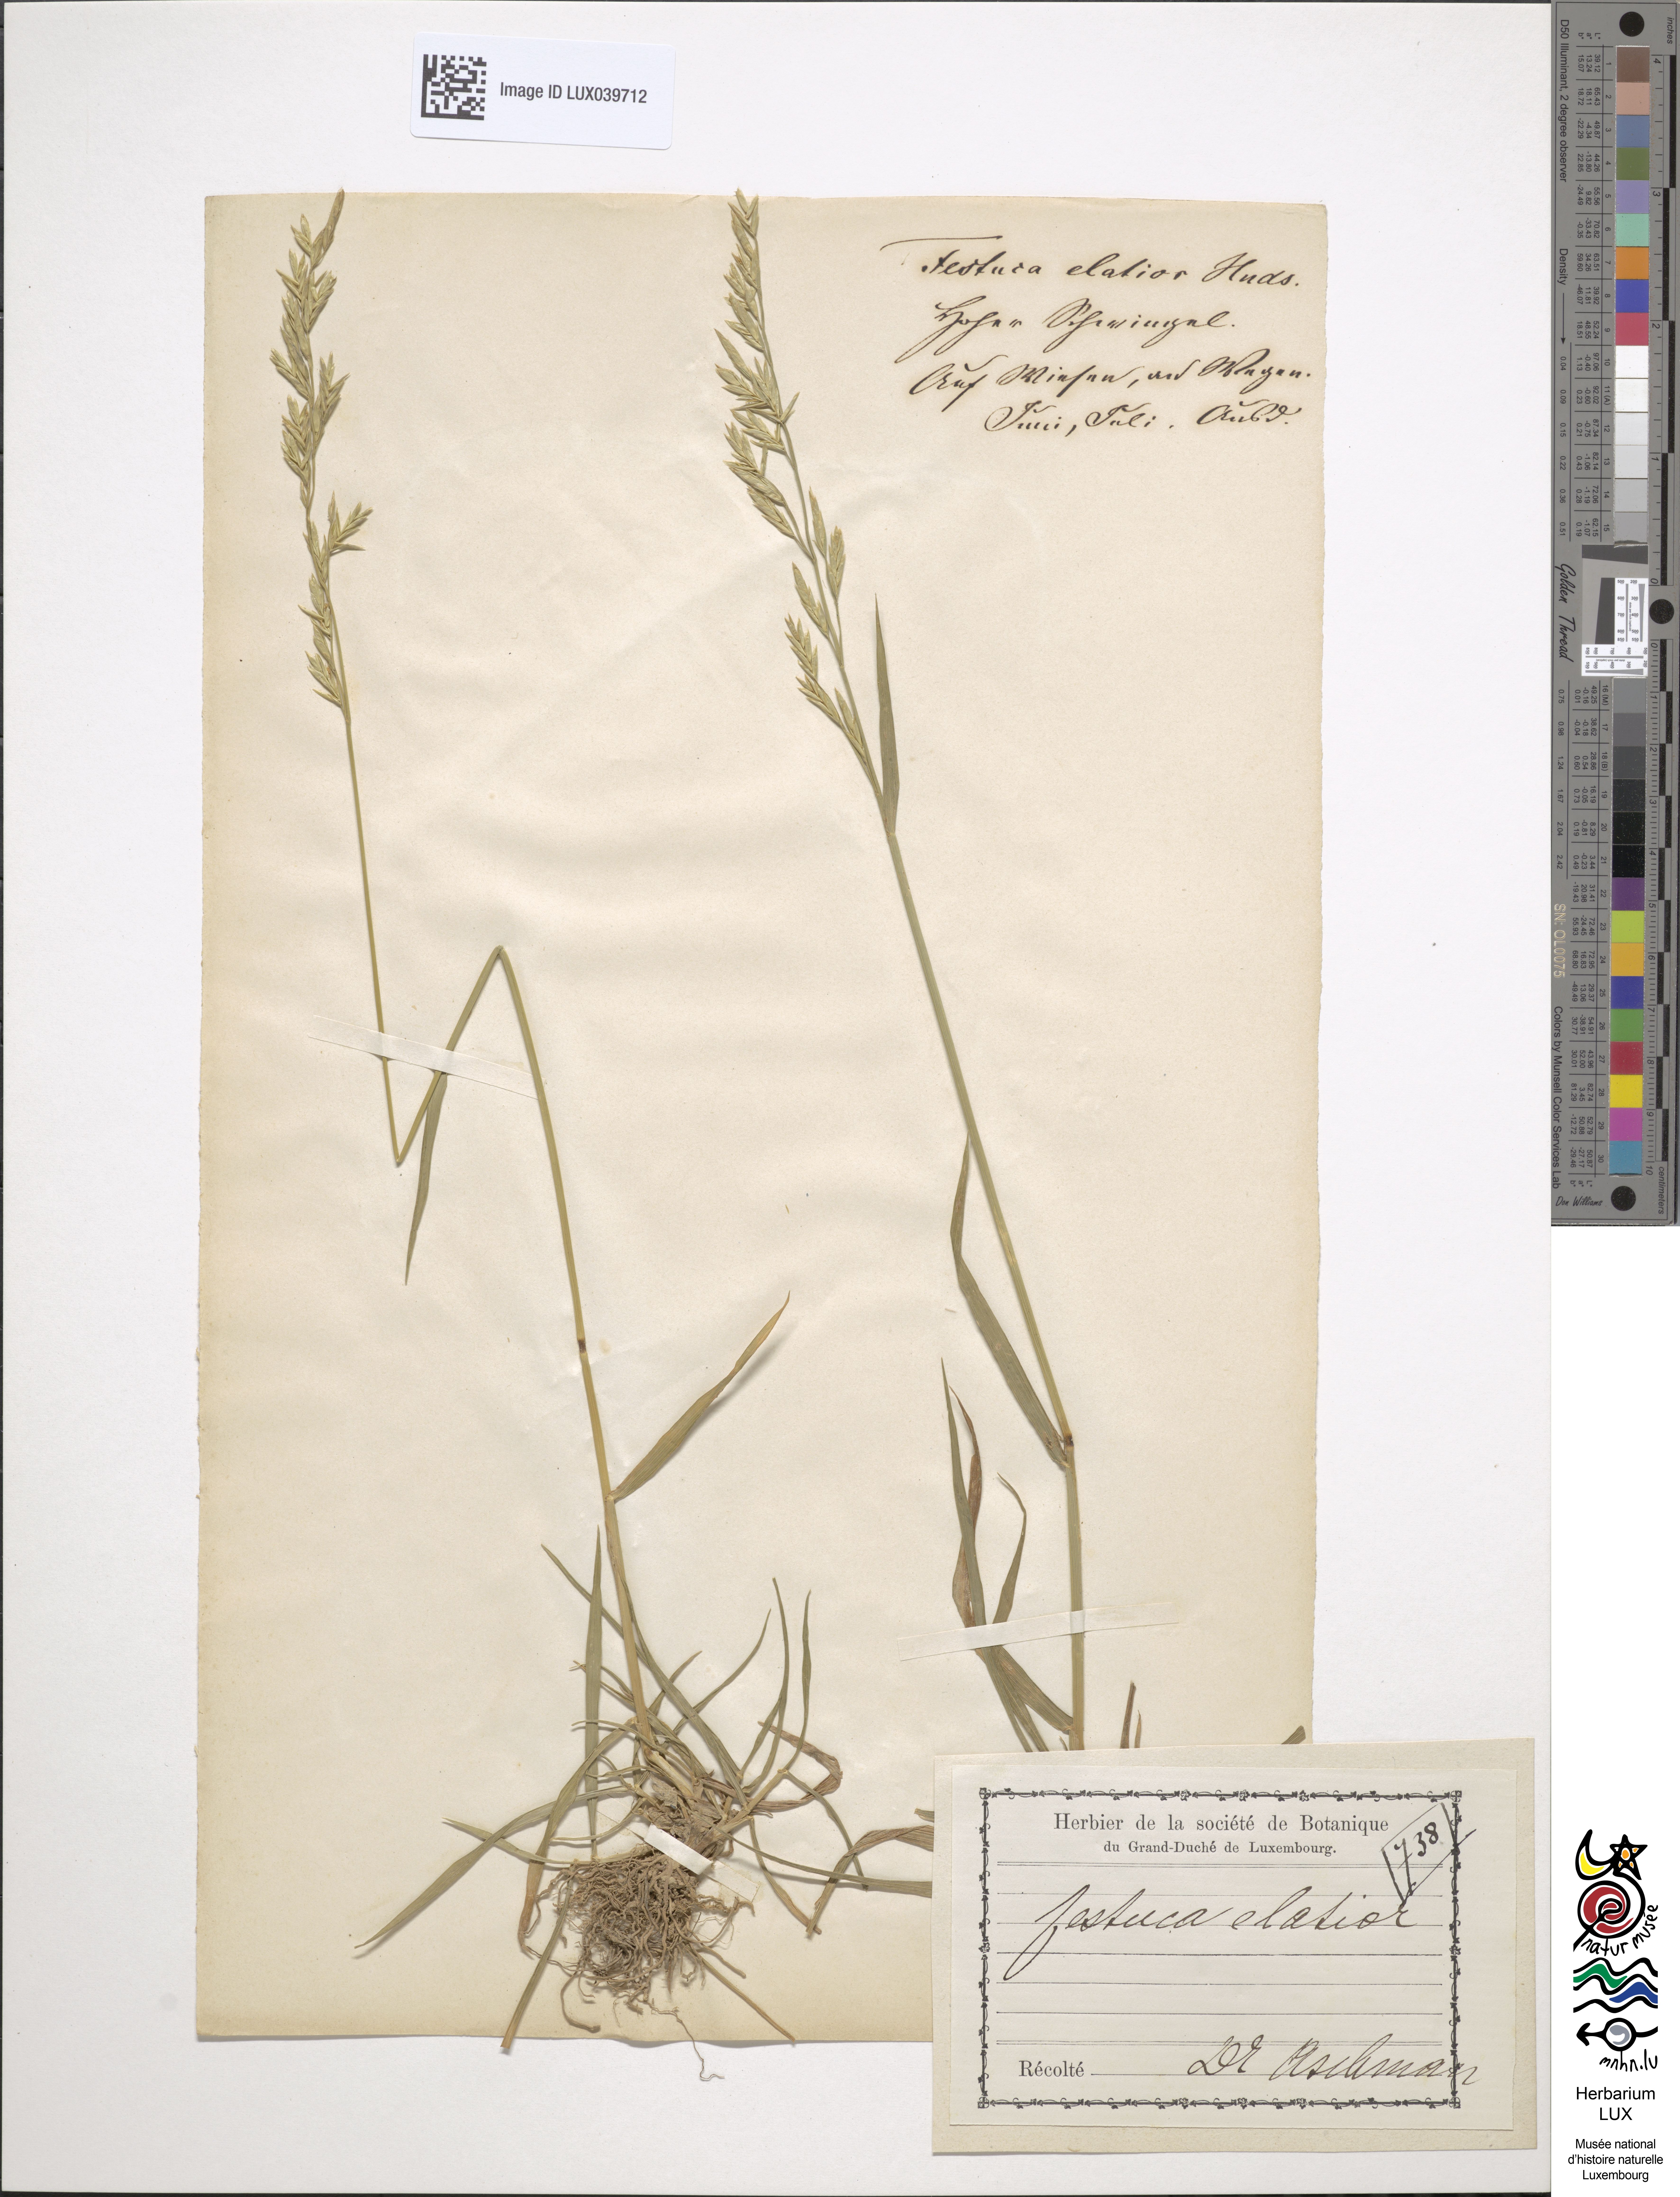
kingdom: Plantae
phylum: Tracheophyta
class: Liliopsida
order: Poales
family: Poaceae
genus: Lolium
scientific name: Lolium pratense
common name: Dover grass
